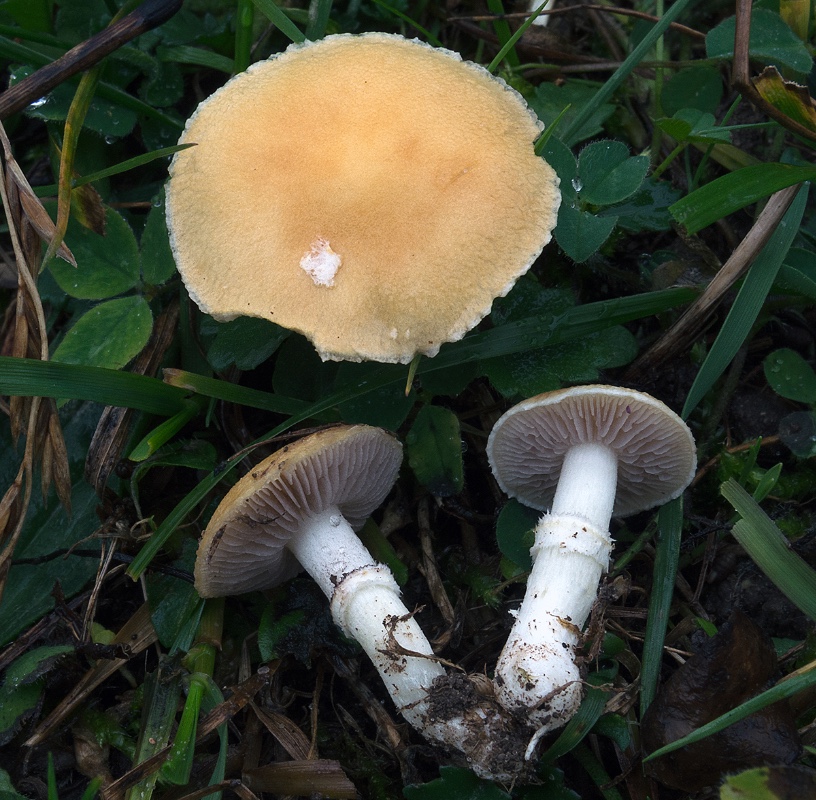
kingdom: Fungi
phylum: Basidiomycota
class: Agaricomycetes
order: Agaricales
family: Hymenogastraceae
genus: Psilocybe
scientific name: Psilocybe coronilla
